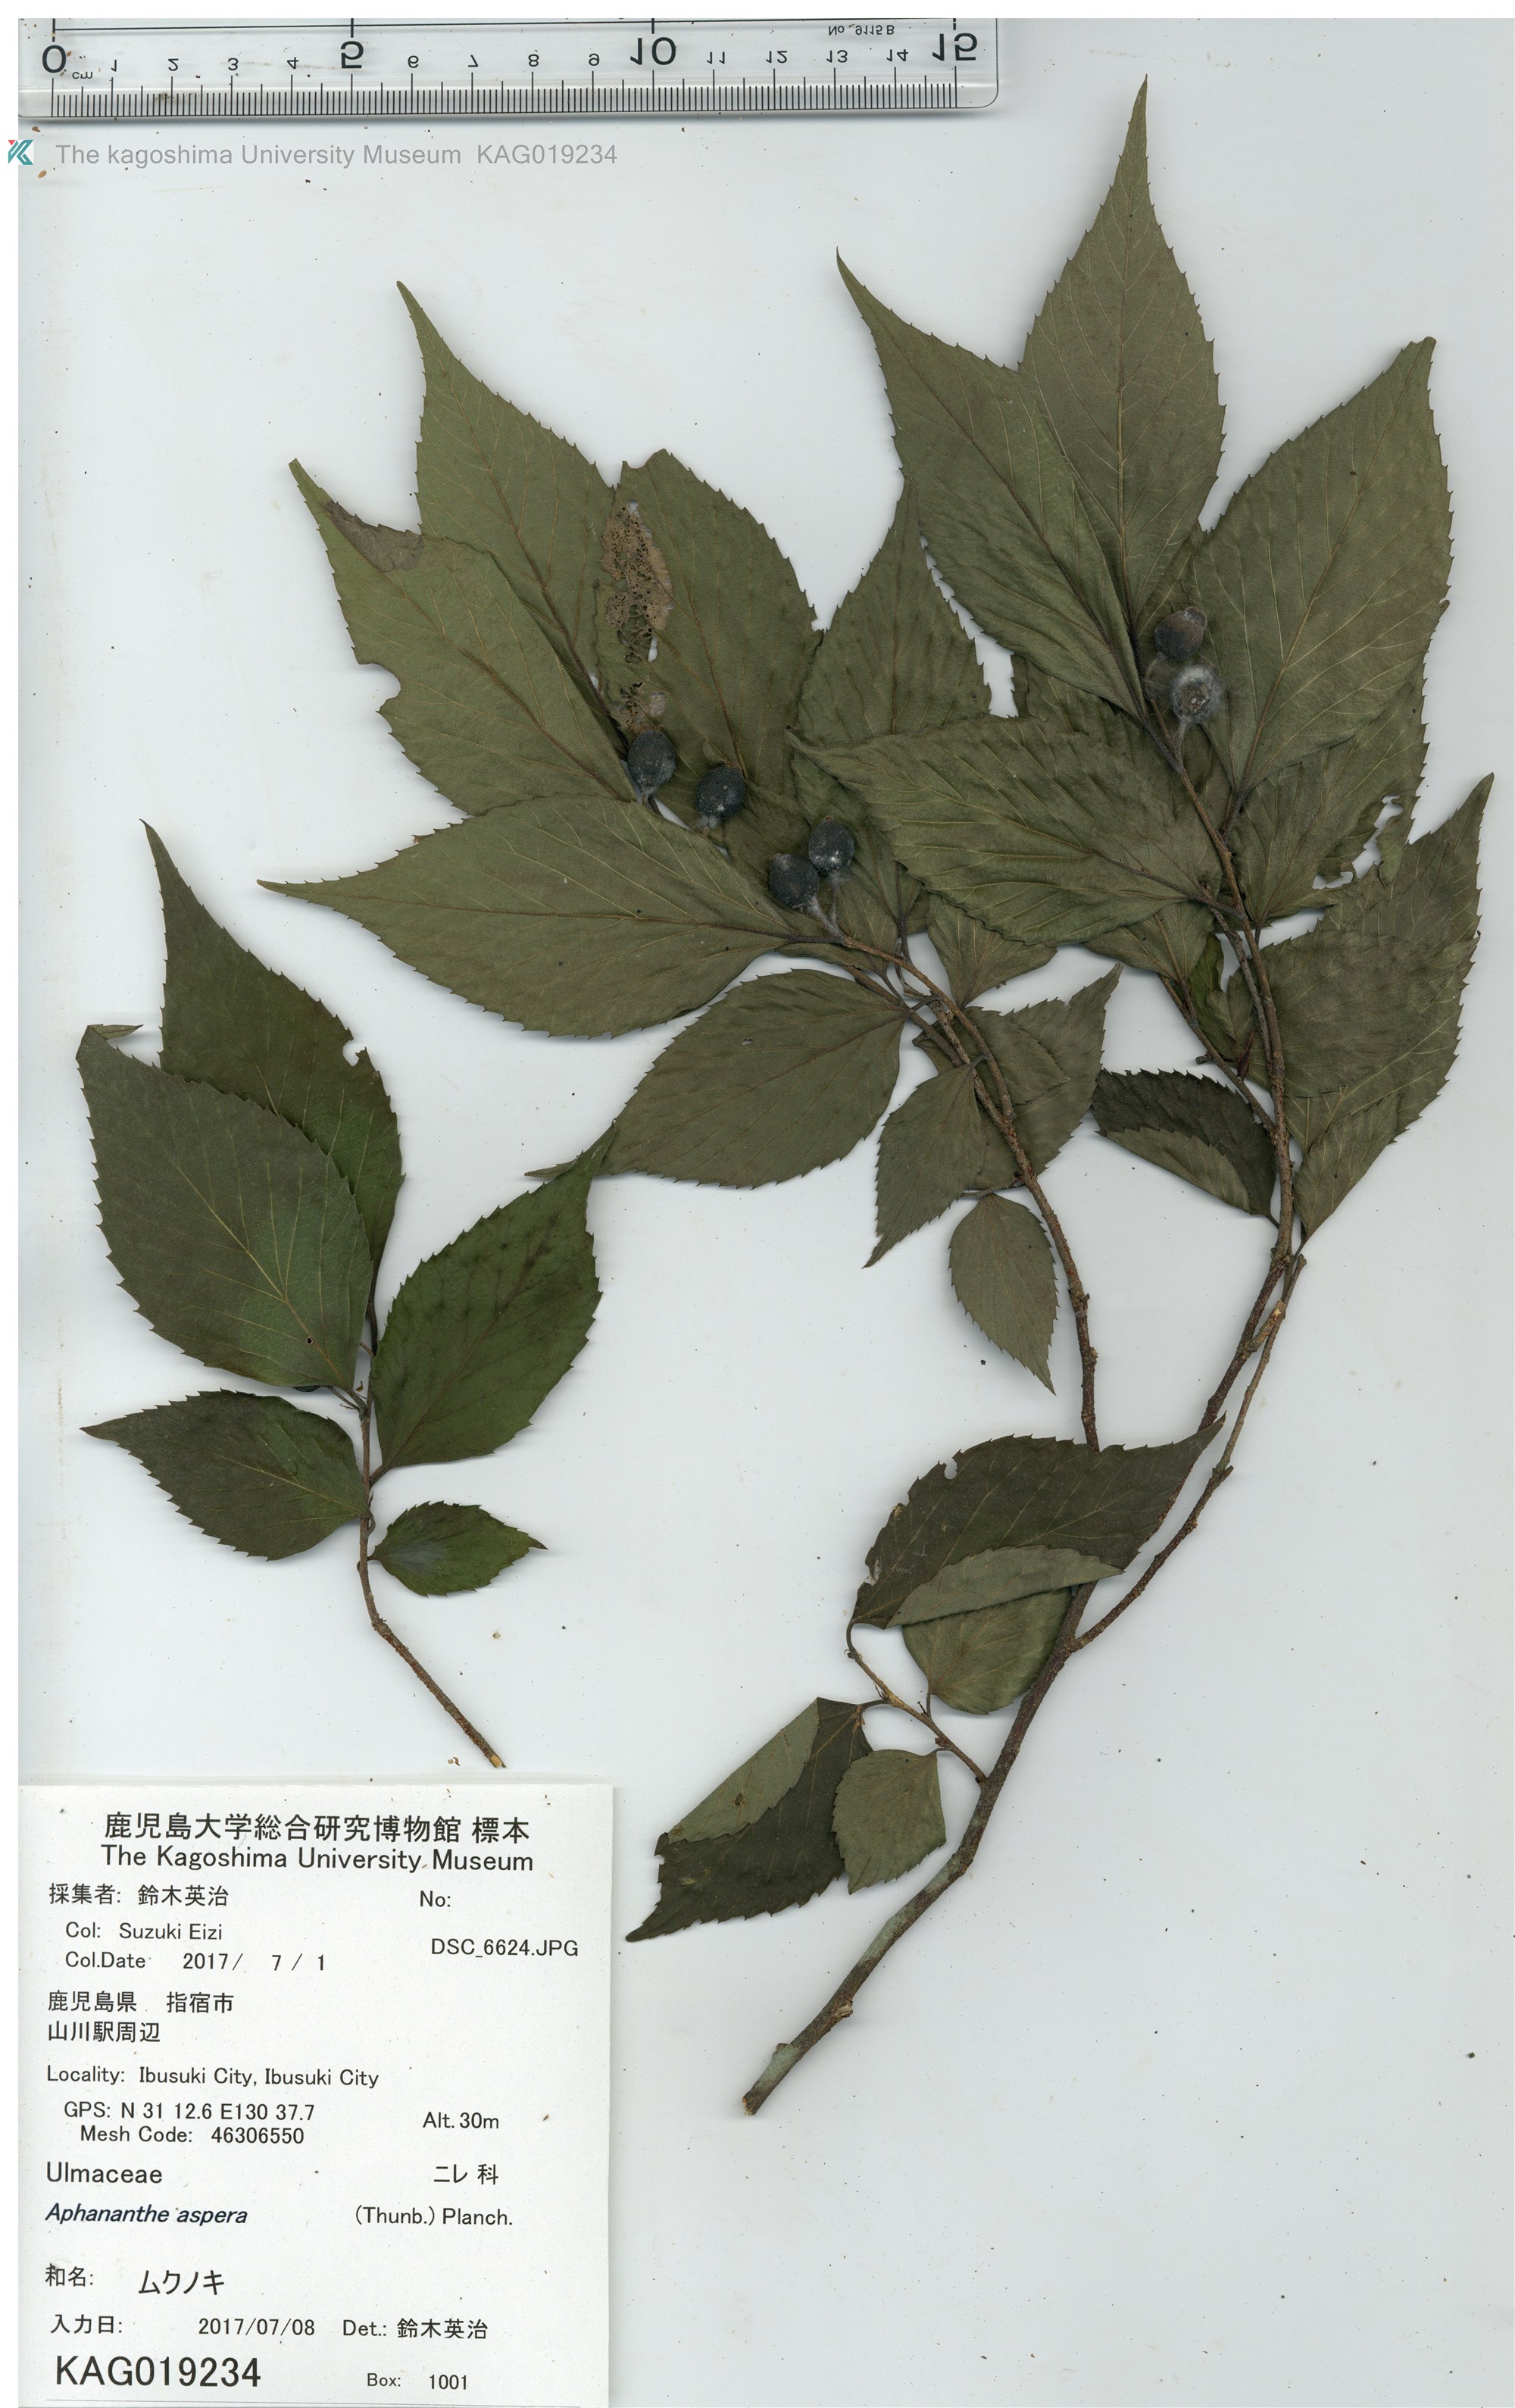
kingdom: Plantae
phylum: Tracheophyta
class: Magnoliopsida
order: Rosales
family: Cannabaceae
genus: Aphananthe
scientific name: Aphananthe aspera
